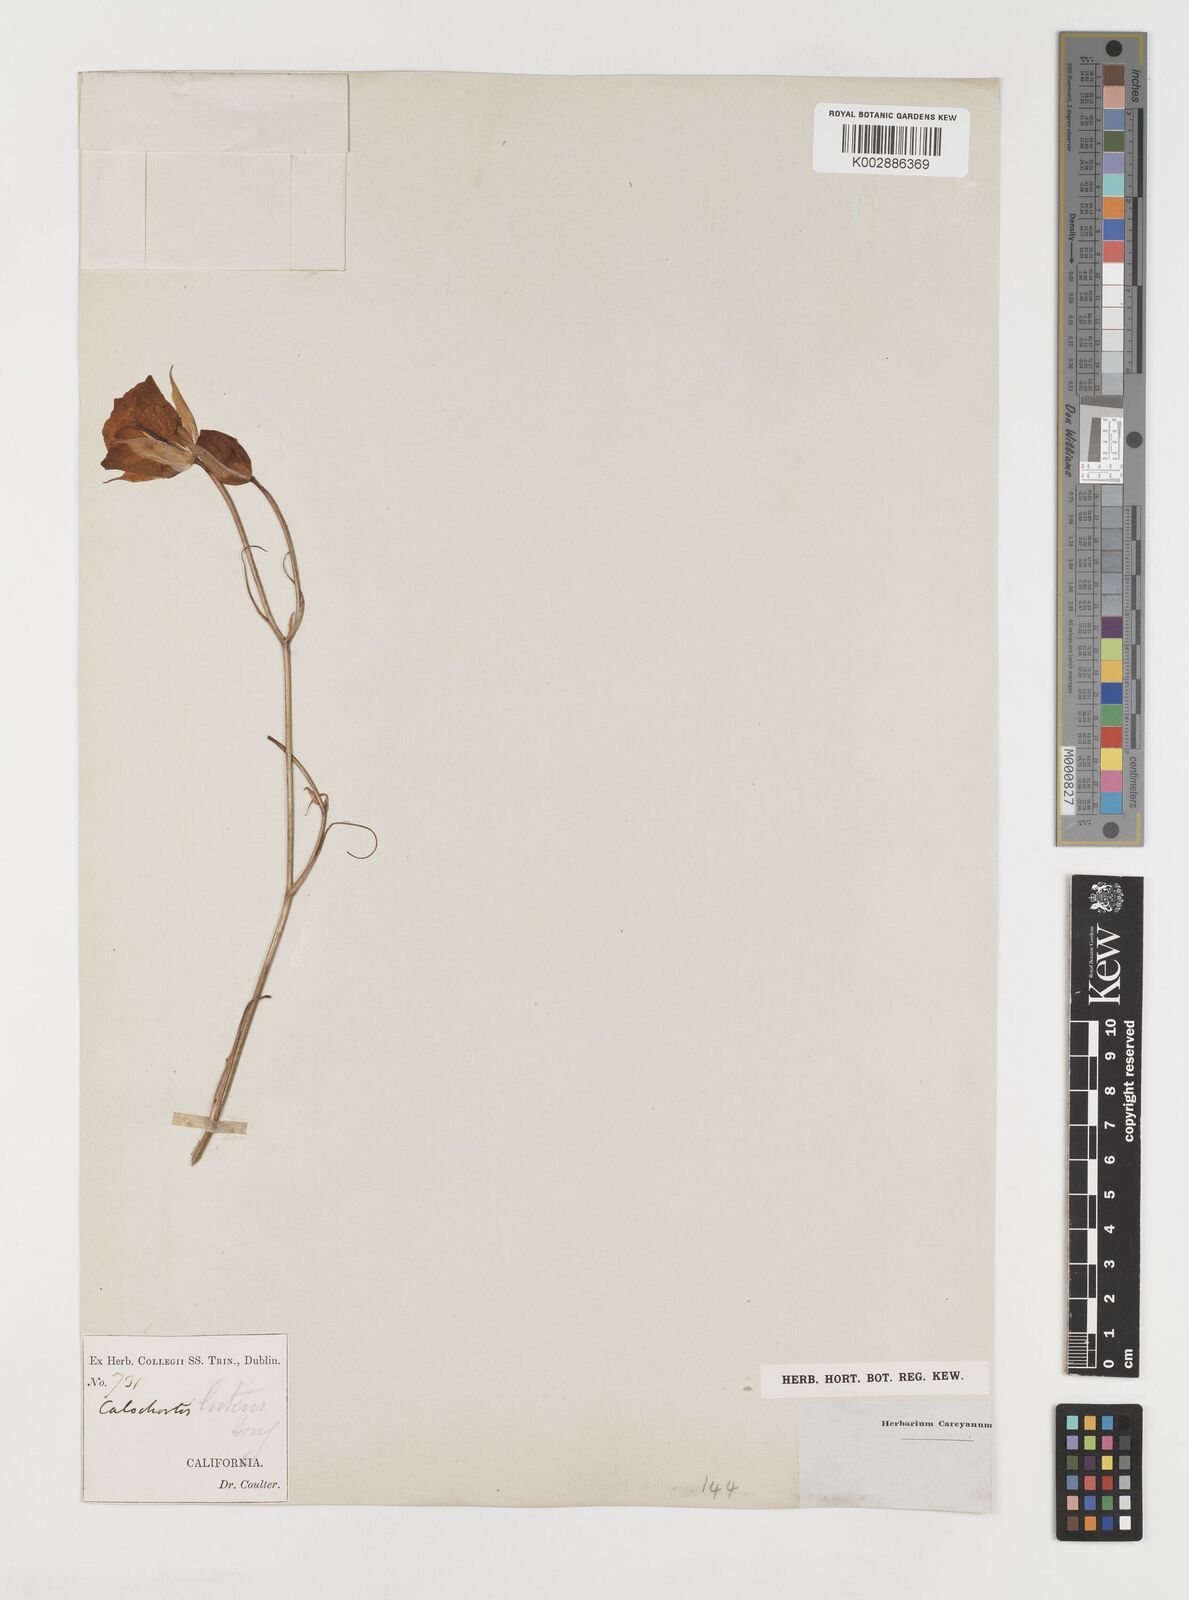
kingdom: Plantae
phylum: Tracheophyta
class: Liliopsida
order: Liliales
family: Liliaceae
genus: Calochortus
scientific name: Calochortus nuttallii
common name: Sego-lily
